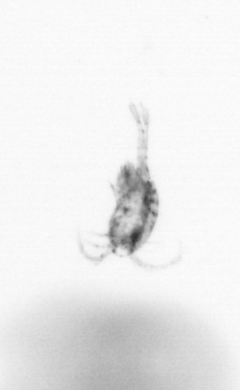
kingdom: Animalia
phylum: Arthropoda
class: Copepoda
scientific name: Copepoda
